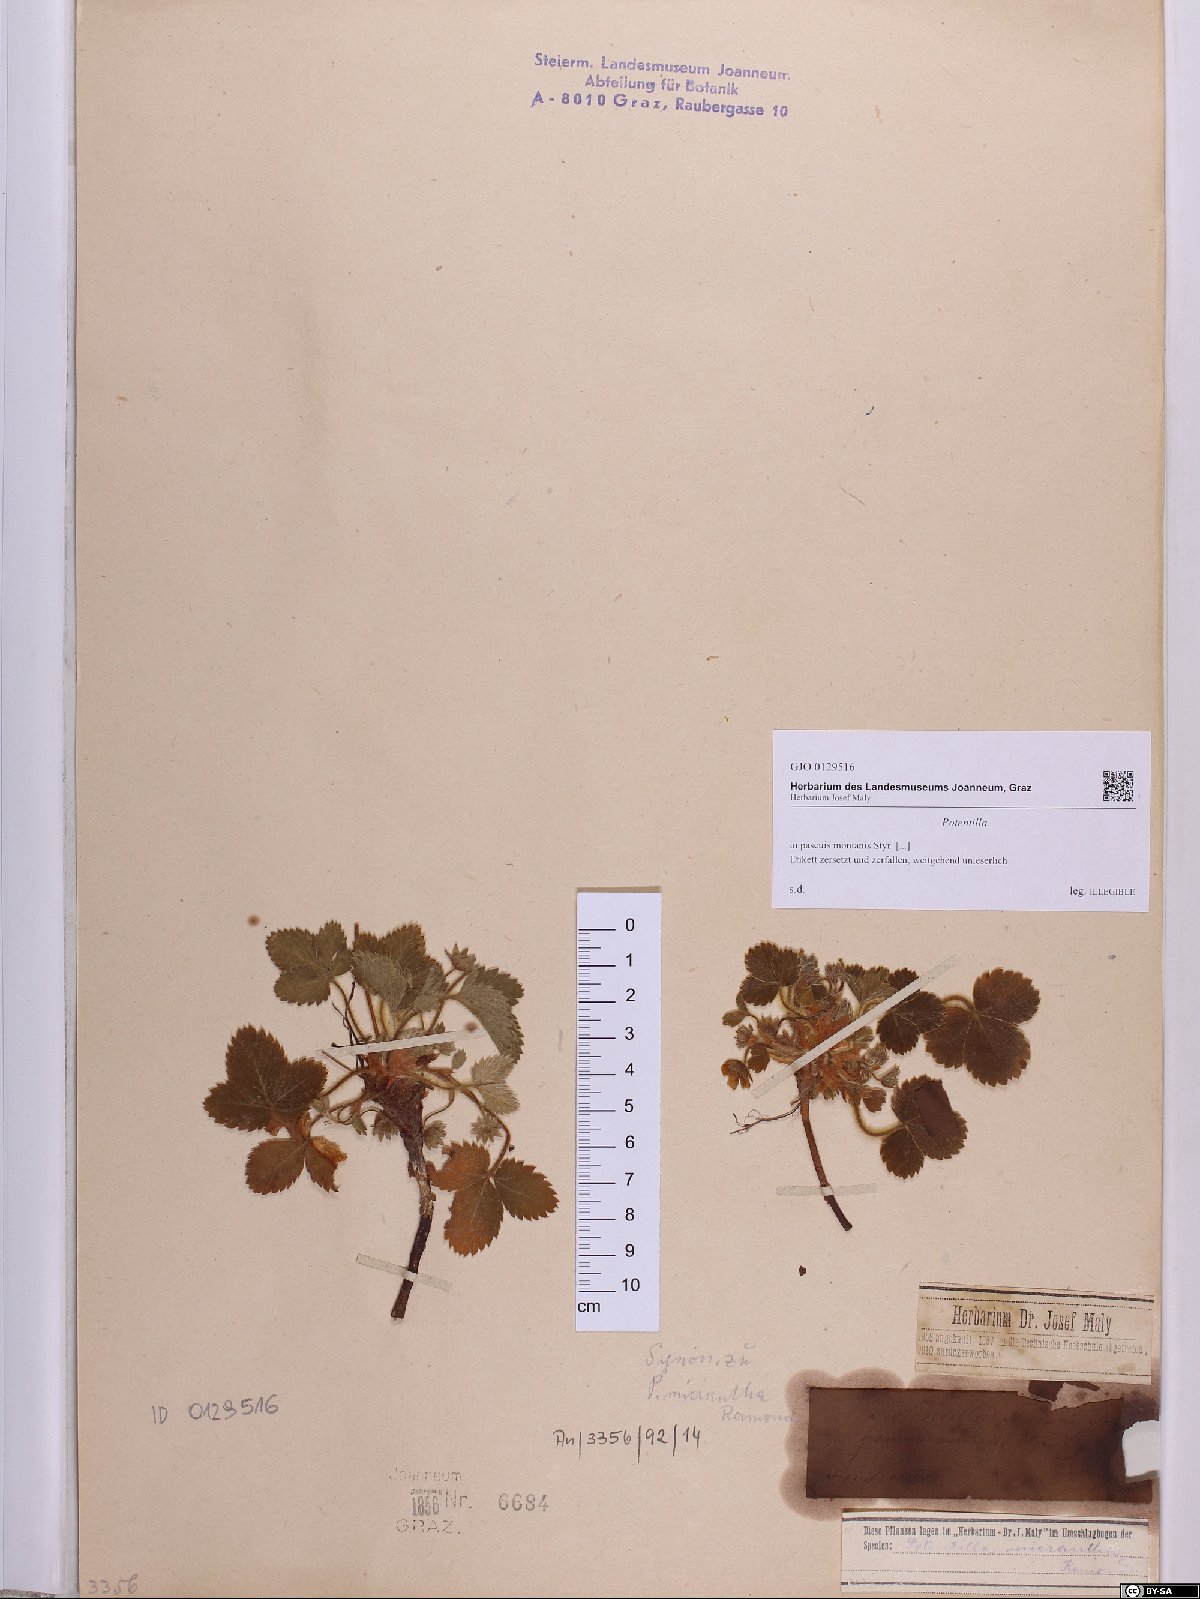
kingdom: Plantae
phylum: Tracheophyta
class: Magnoliopsida
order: Rosales
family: Rosaceae
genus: Potentilla
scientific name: Potentilla
